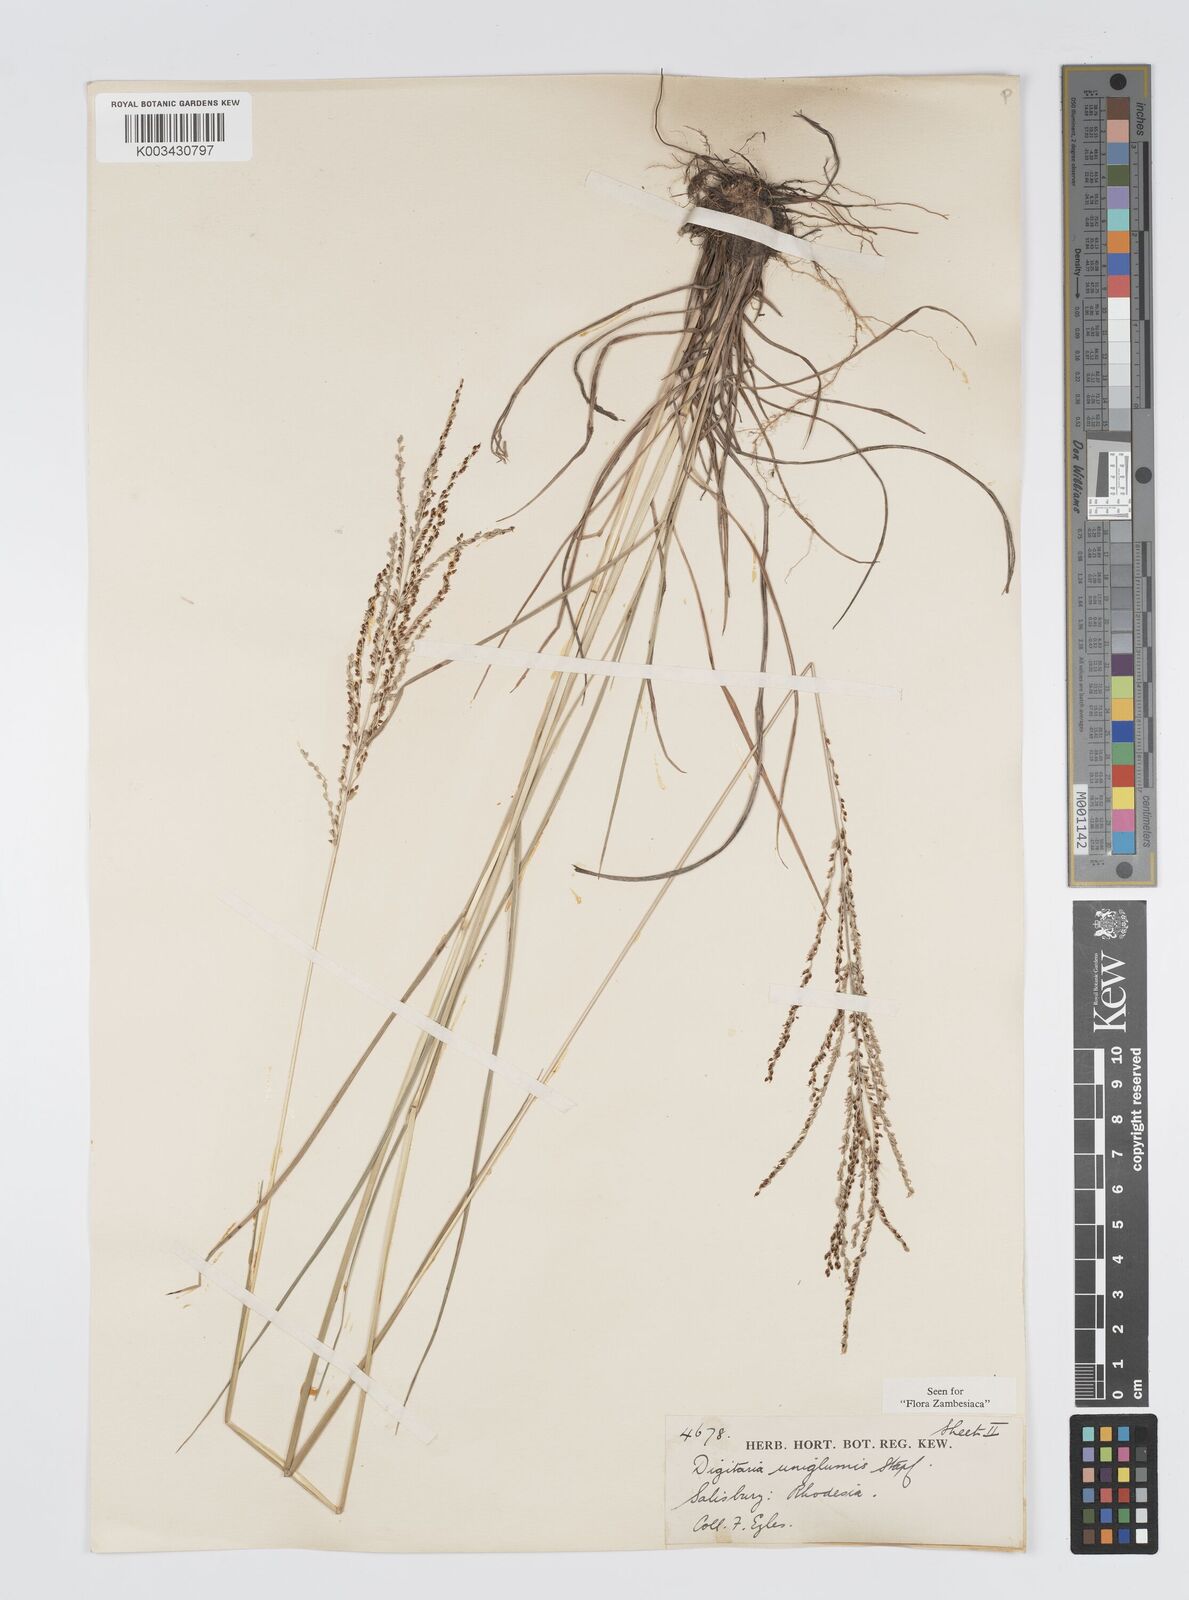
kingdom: Plantae
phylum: Tracheophyta
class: Liliopsida
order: Poales
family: Poaceae
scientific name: Poaceae
